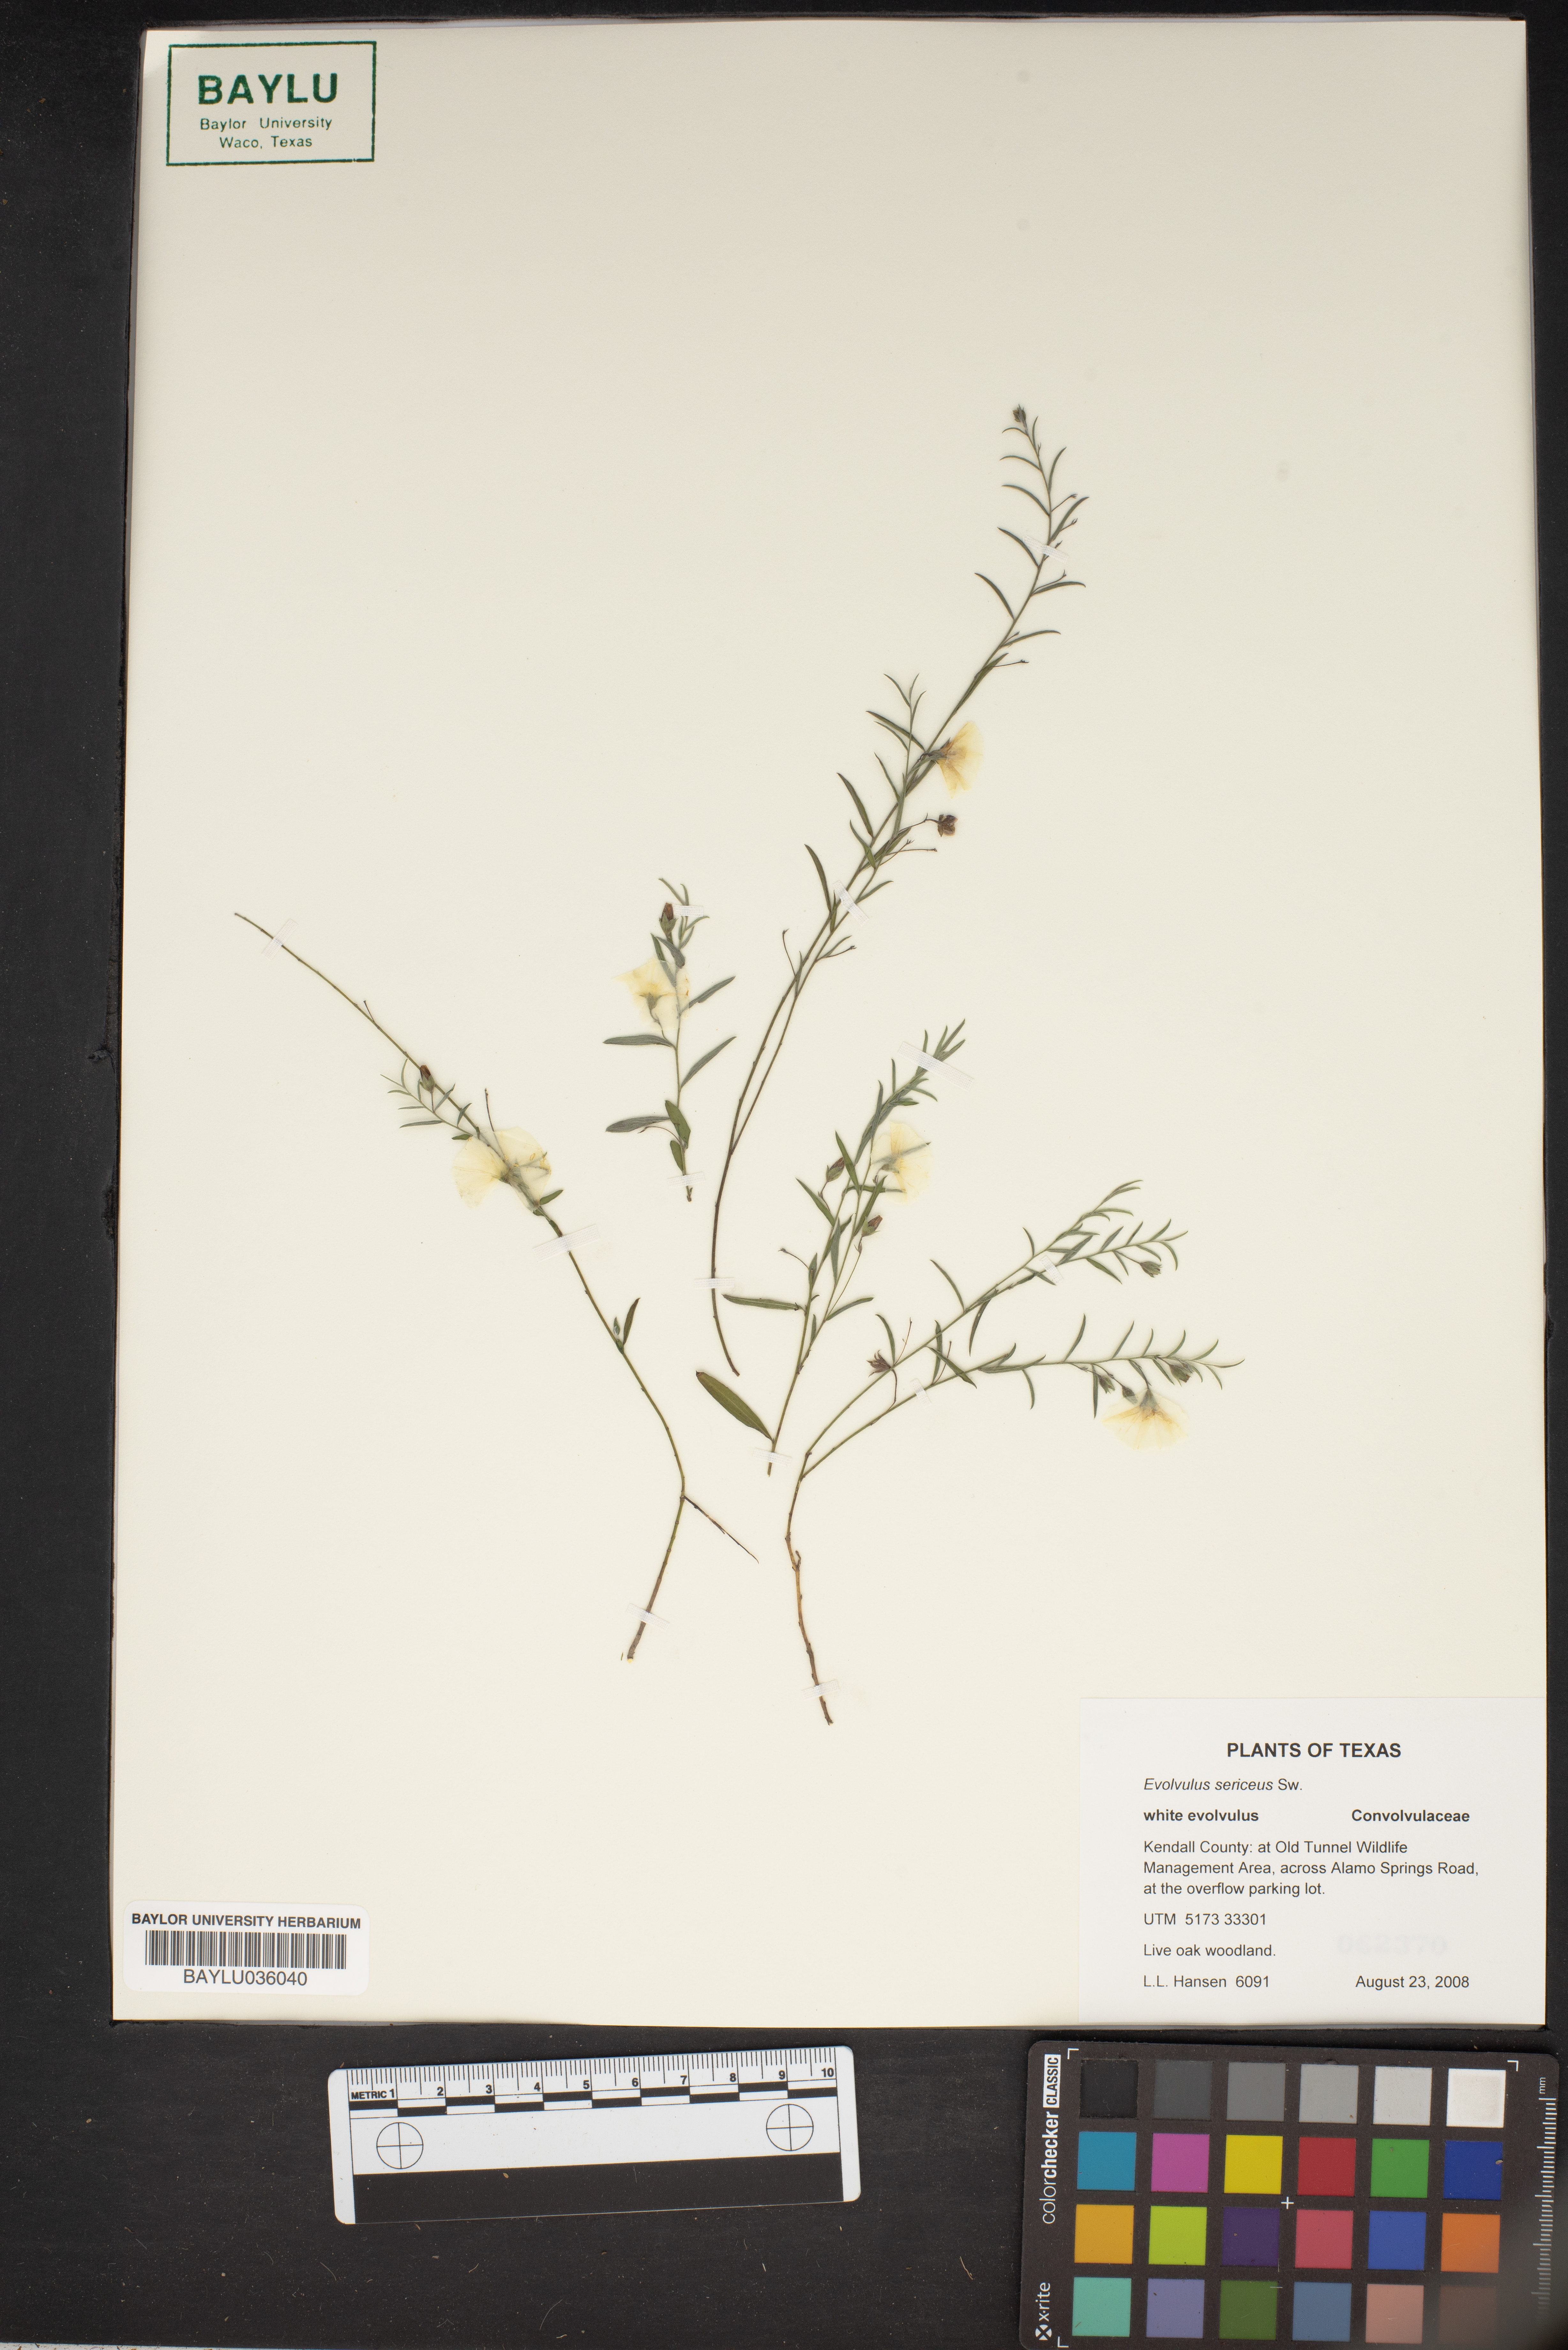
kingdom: Plantae
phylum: Tracheophyta
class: Magnoliopsida
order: Solanales
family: Convolvulaceae
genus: Evolvulus
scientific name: Evolvulus sericeus
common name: Blue dots
